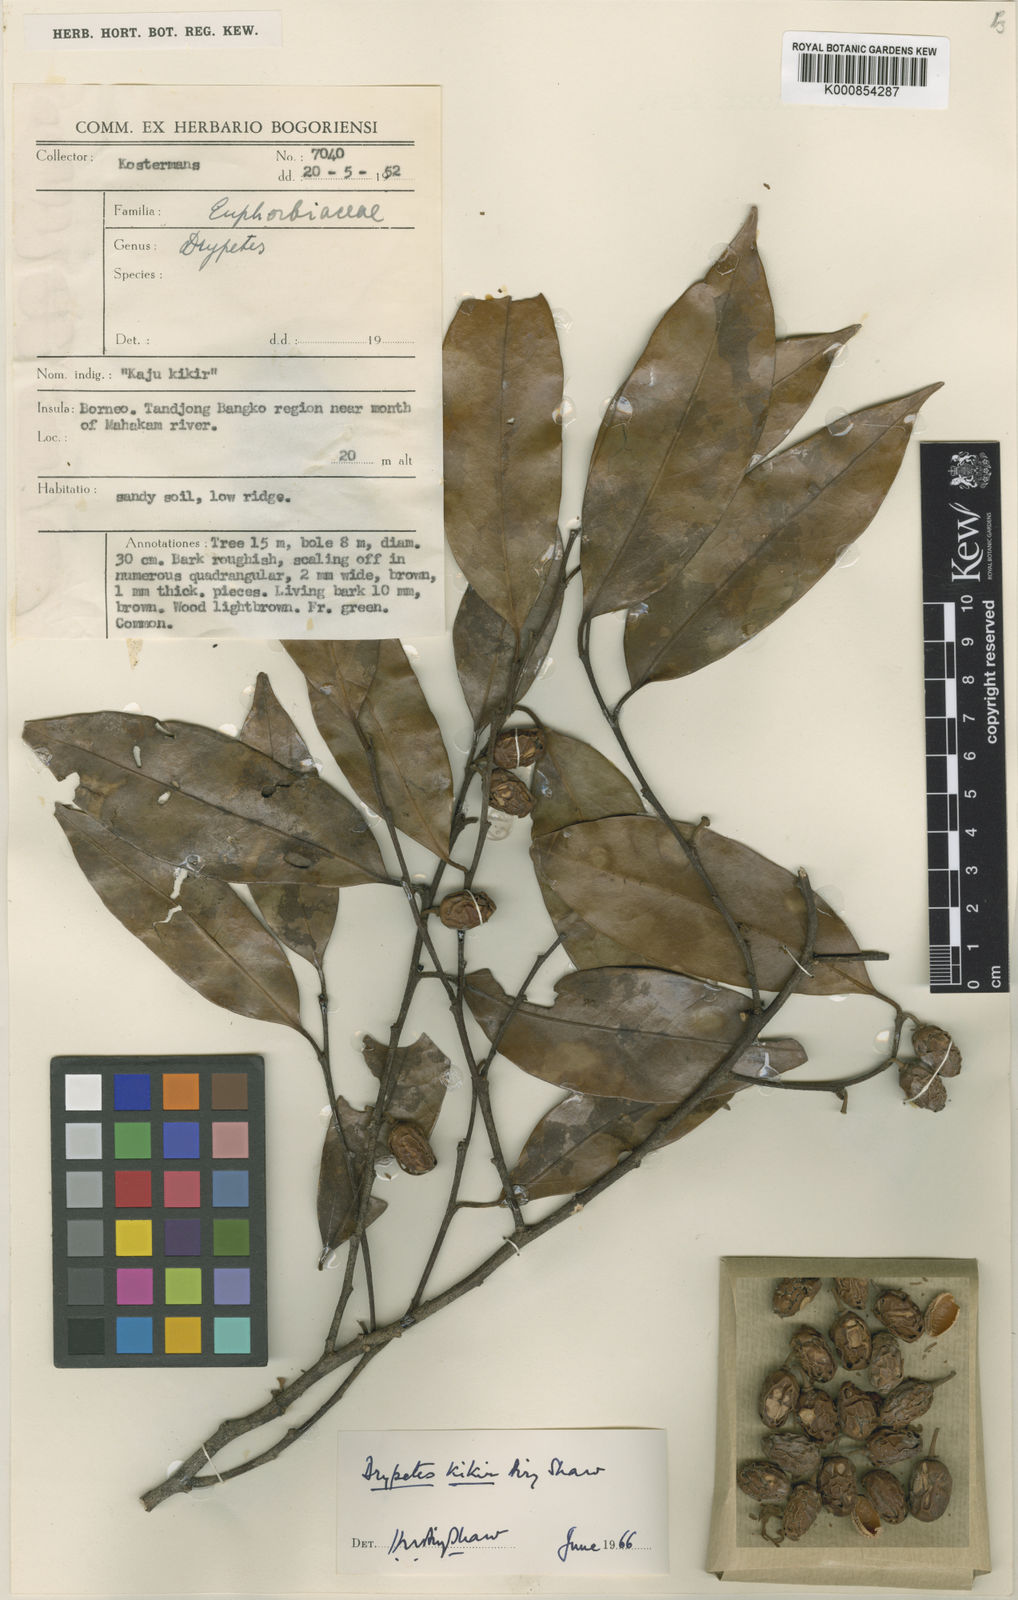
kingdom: Plantae
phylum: Tracheophyta
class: Magnoliopsida
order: Malpighiales
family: Putranjivaceae
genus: Drypetes
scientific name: Drypetes kikir
